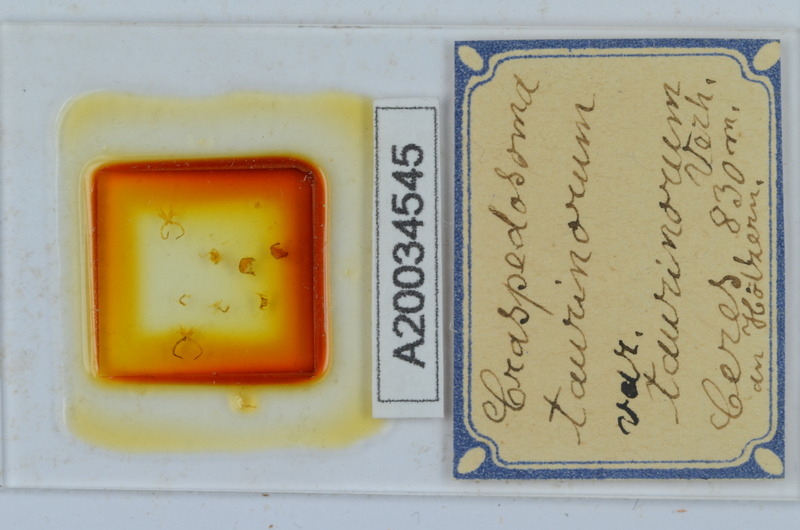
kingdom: Animalia
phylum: Arthropoda
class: Diplopoda
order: Chordeumatida
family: Craspedosomatidae
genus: Craspedosoma
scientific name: Craspedosoma taurinorum
